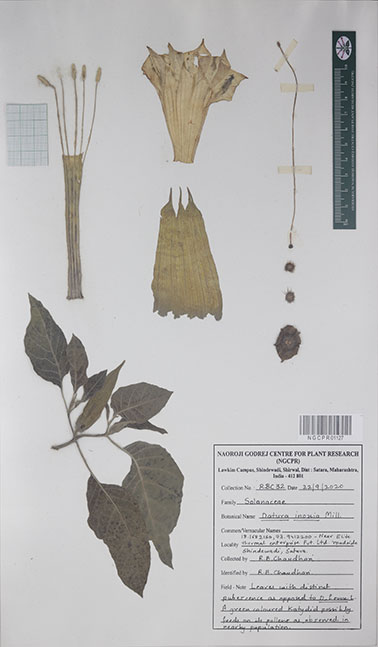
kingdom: Plantae
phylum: Tracheophyta
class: Magnoliopsida
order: Solanales
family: Solanaceae
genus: Datura
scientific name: Datura innoxia
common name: Downy thorn-apple
